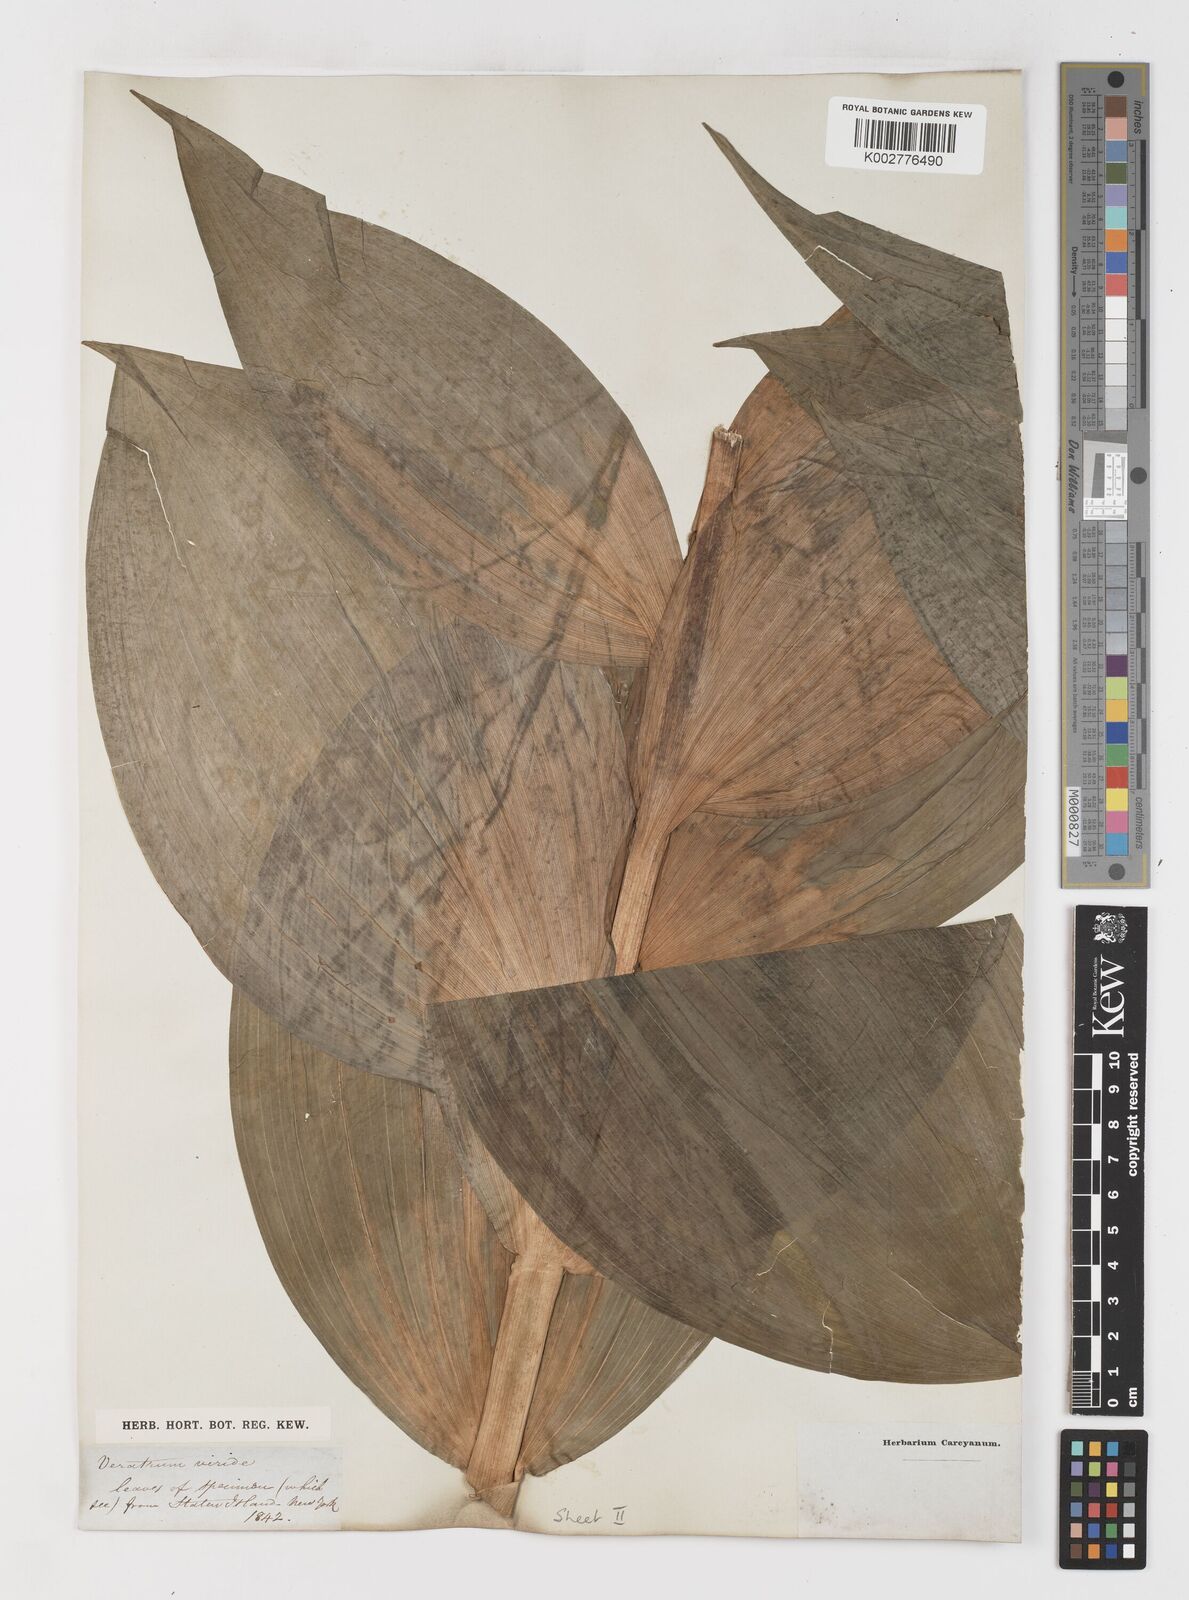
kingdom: Plantae
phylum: Tracheophyta
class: Liliopsida
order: Liliales
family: Melanthiaceae
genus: Veratrum
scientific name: Veratrum viride
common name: American false hellebore
